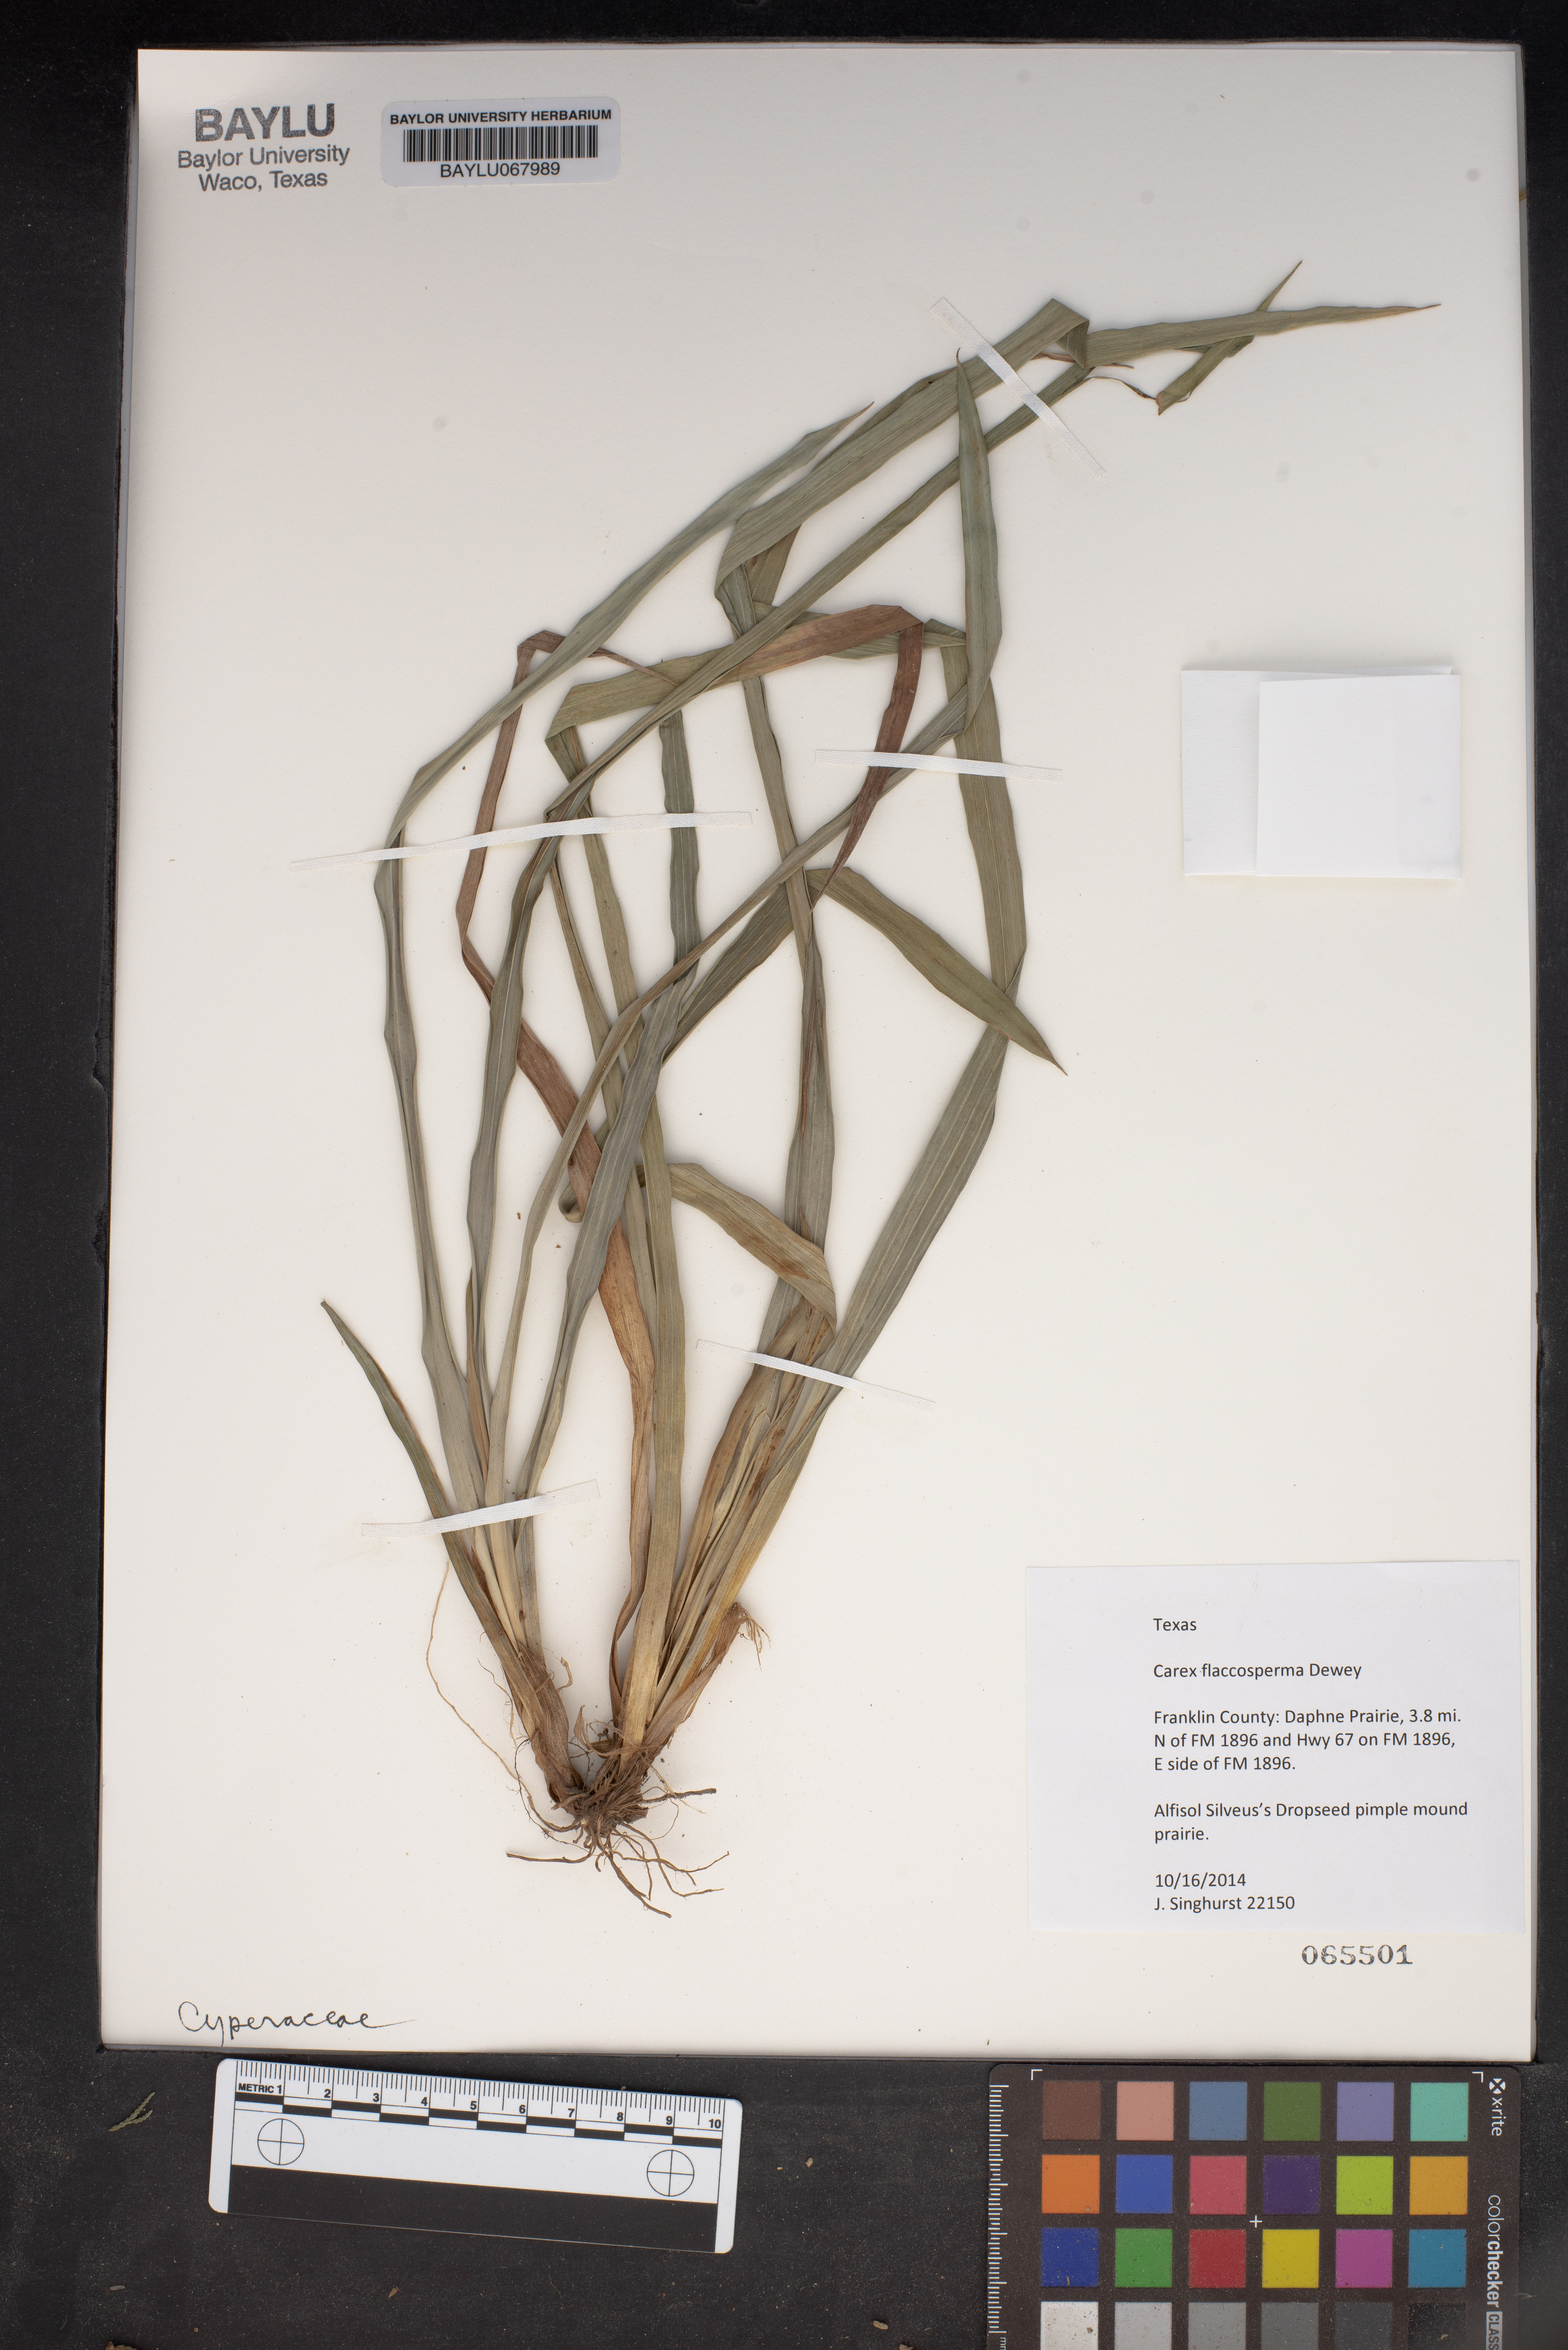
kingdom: Plantae
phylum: Tracheophyta
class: Liliopsida
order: Poales
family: Cyperaceae
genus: Carex
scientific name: Carex flaccosperma
